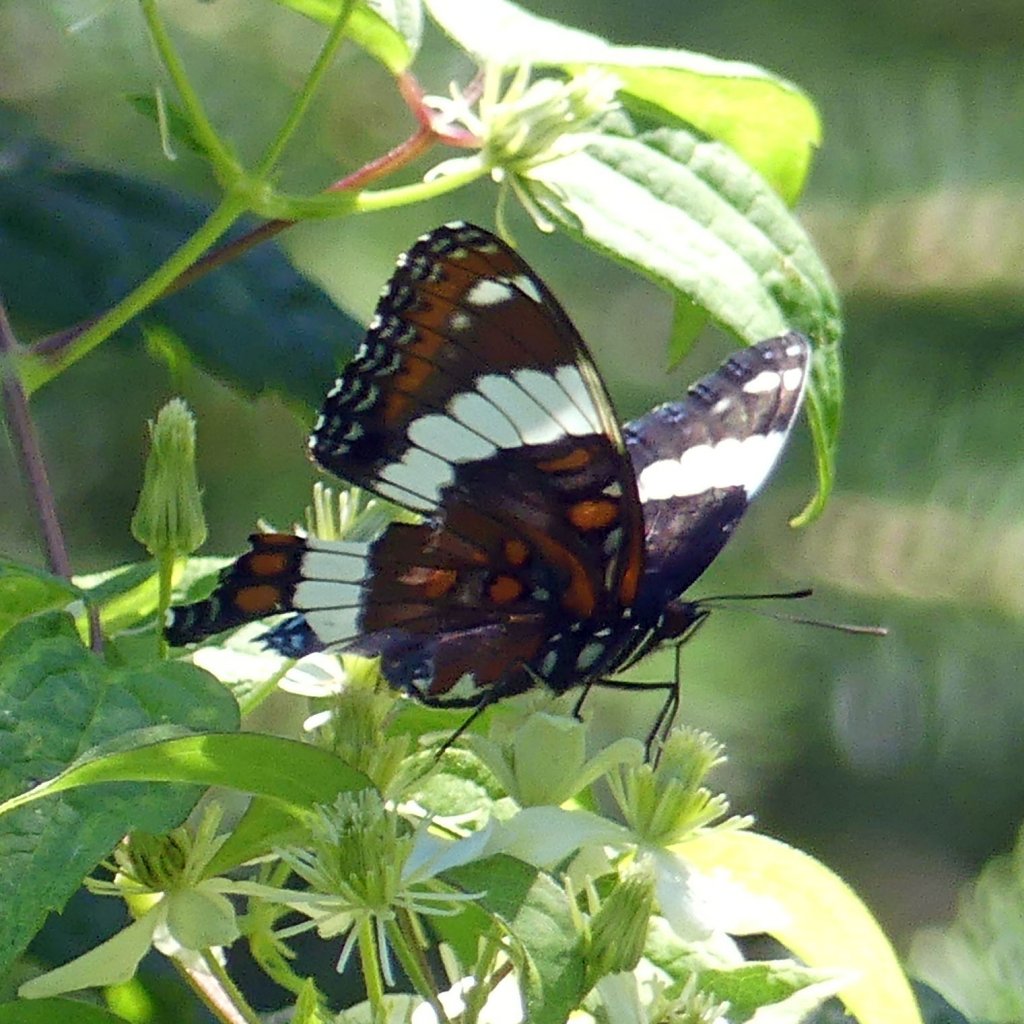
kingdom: Animalia
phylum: Arthropoda
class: Insecta
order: Lepidoptera
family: Nymphalidae
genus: Limenitis
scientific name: Limenitis arthemis
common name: Red-spotted Admiral
